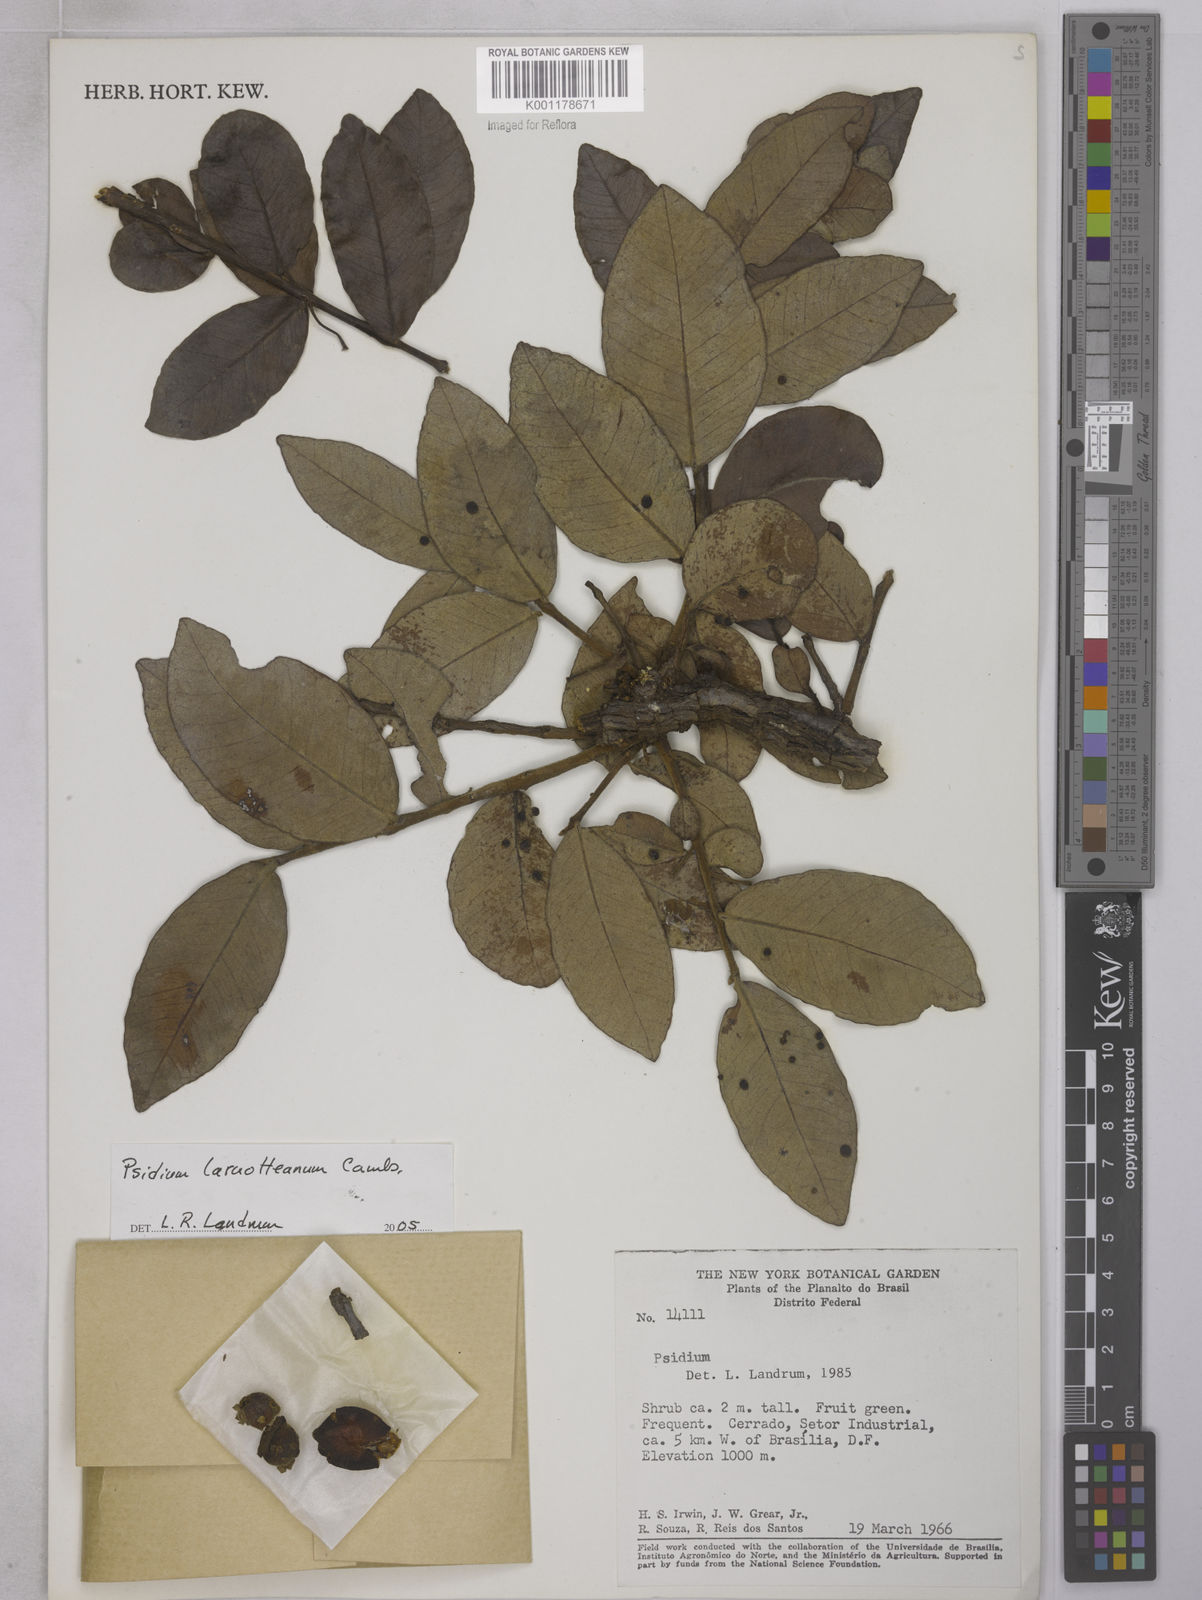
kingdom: Plantae
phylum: Tracheophyta
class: Magnoliopsida
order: Myrtales
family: Myrtaceae
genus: Psidium
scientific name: Psidium larueotteanum
